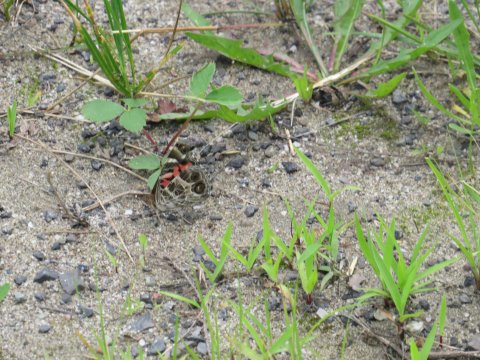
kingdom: Animalia
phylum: Arthropoda
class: Insecta
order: Lepidoptera
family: Nymphalidae
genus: Vanessa
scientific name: Vanessa virginiensis
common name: American Lady
